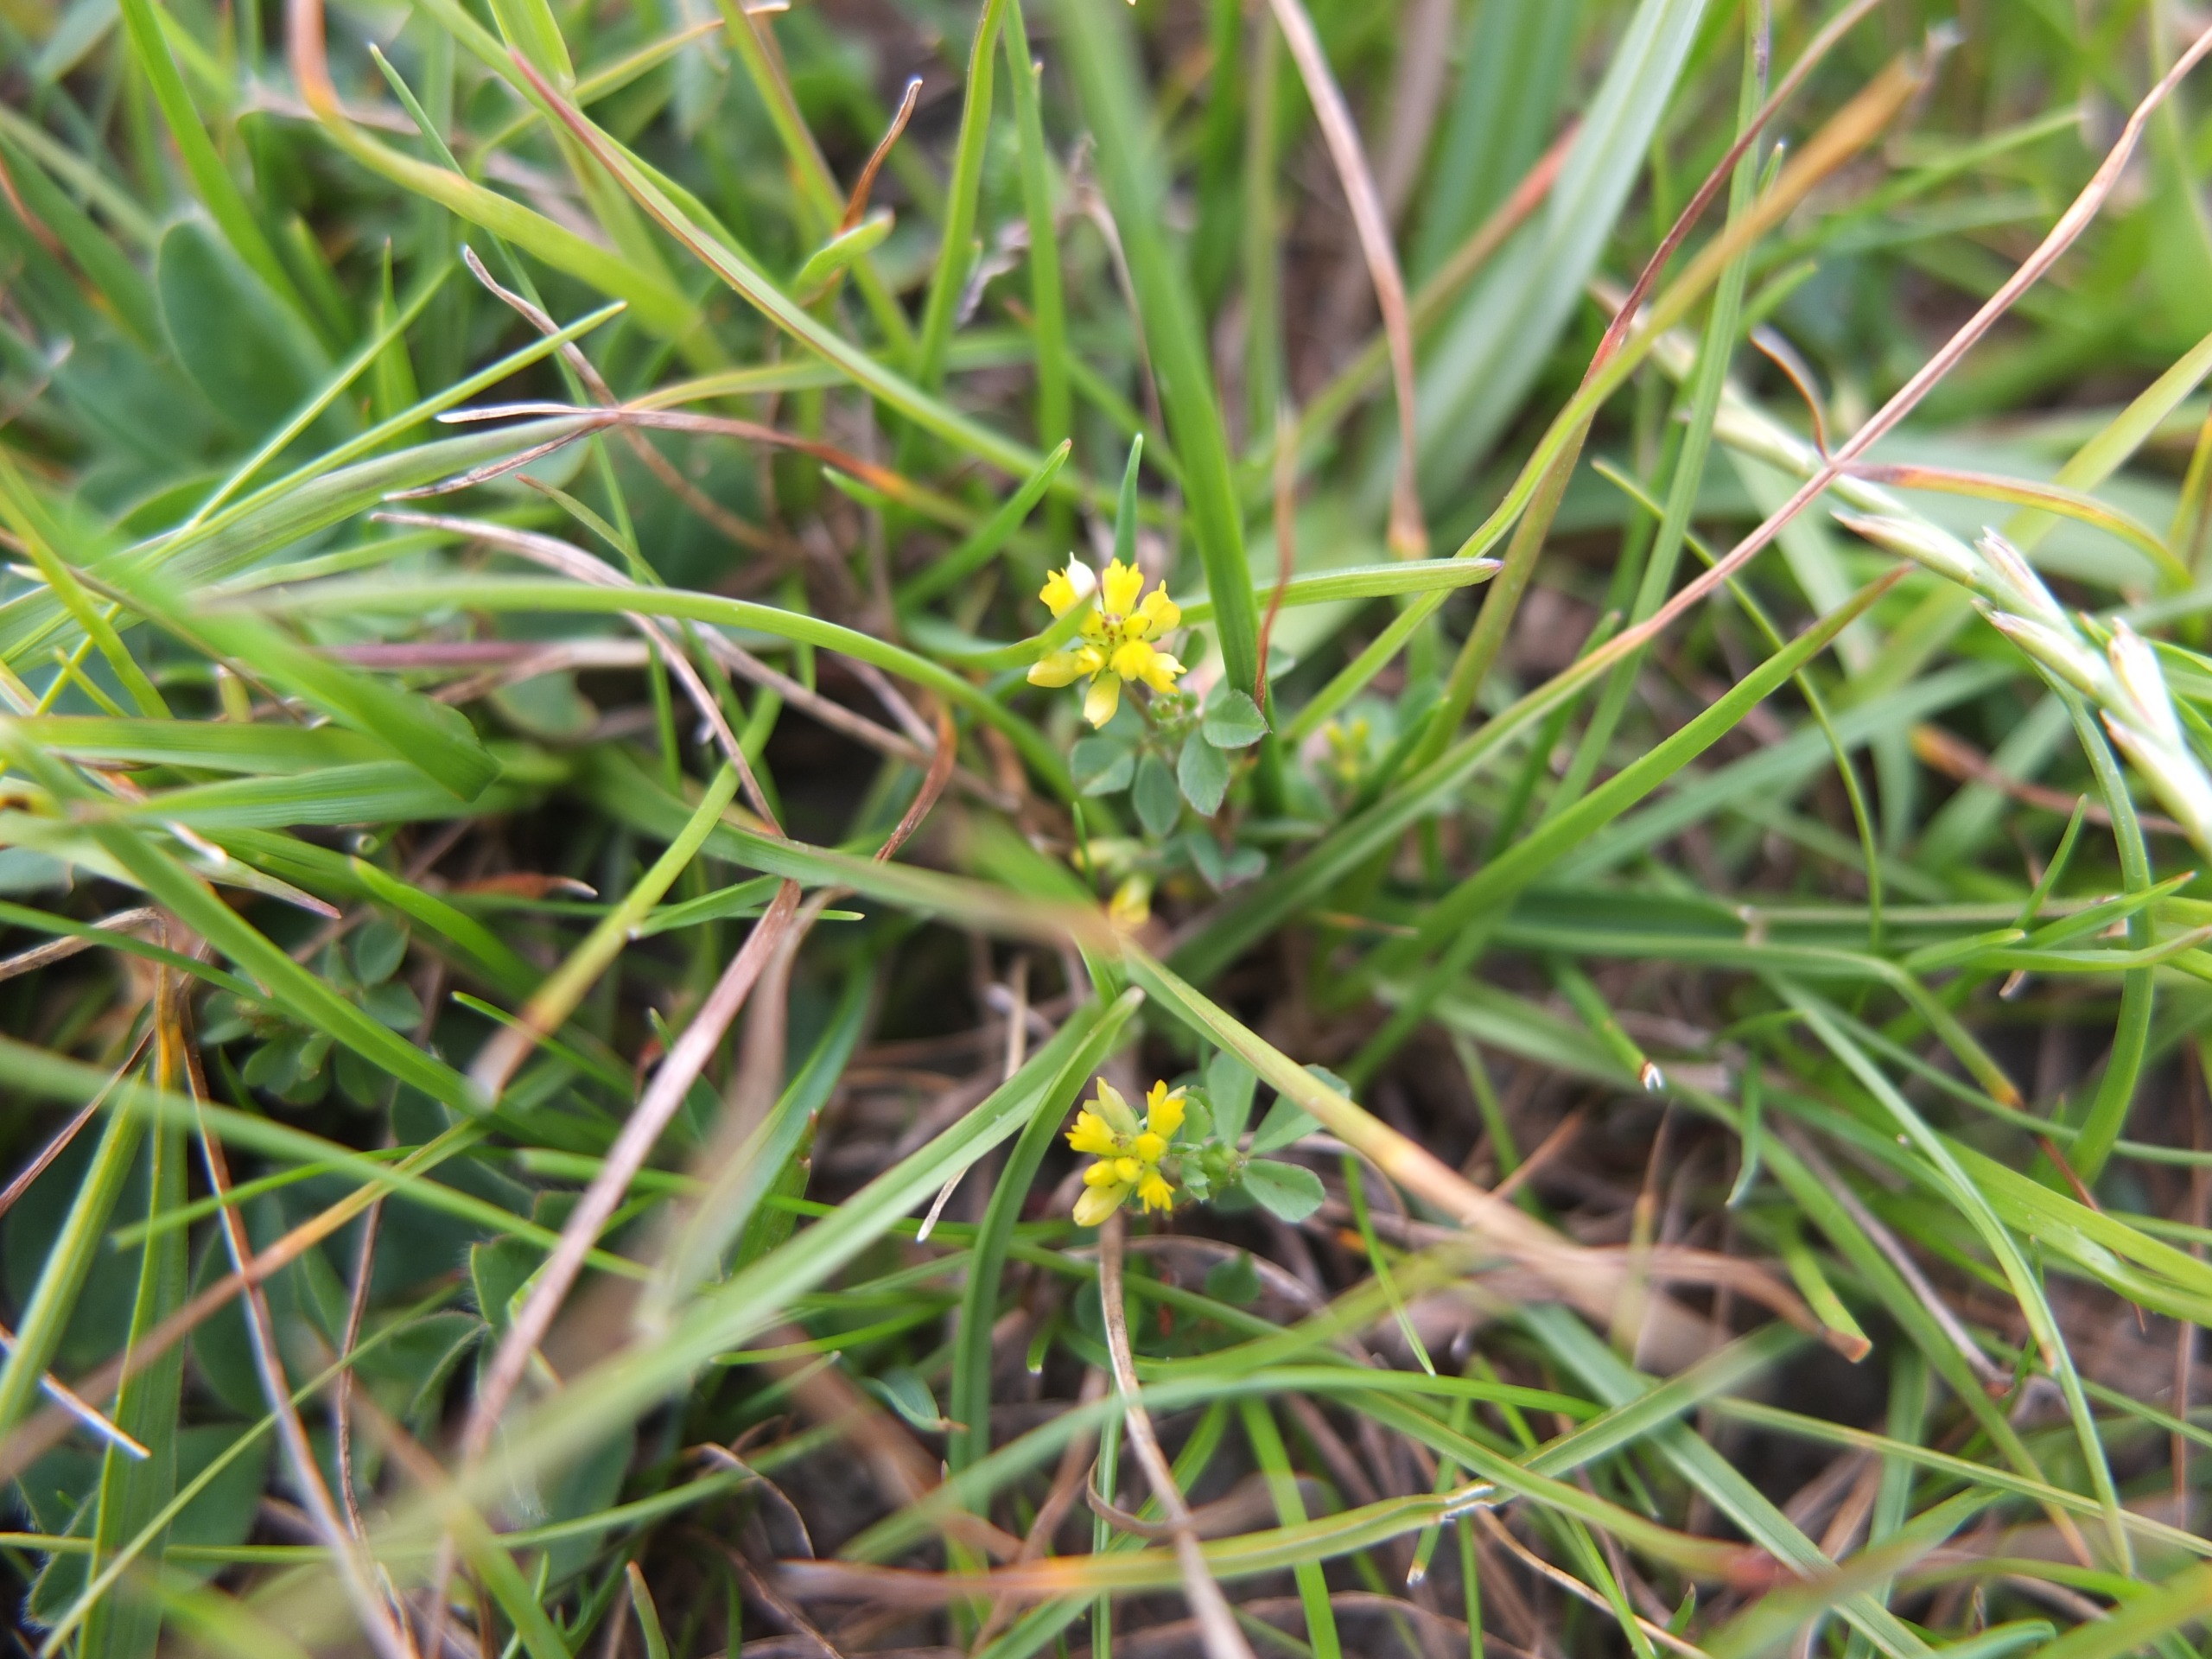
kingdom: Plantae
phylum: Tracheophyta
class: Magnoliopsida
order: Fabales
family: Fabaceae
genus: Trifolium
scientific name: Trifolium dubium
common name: Fin kløver
